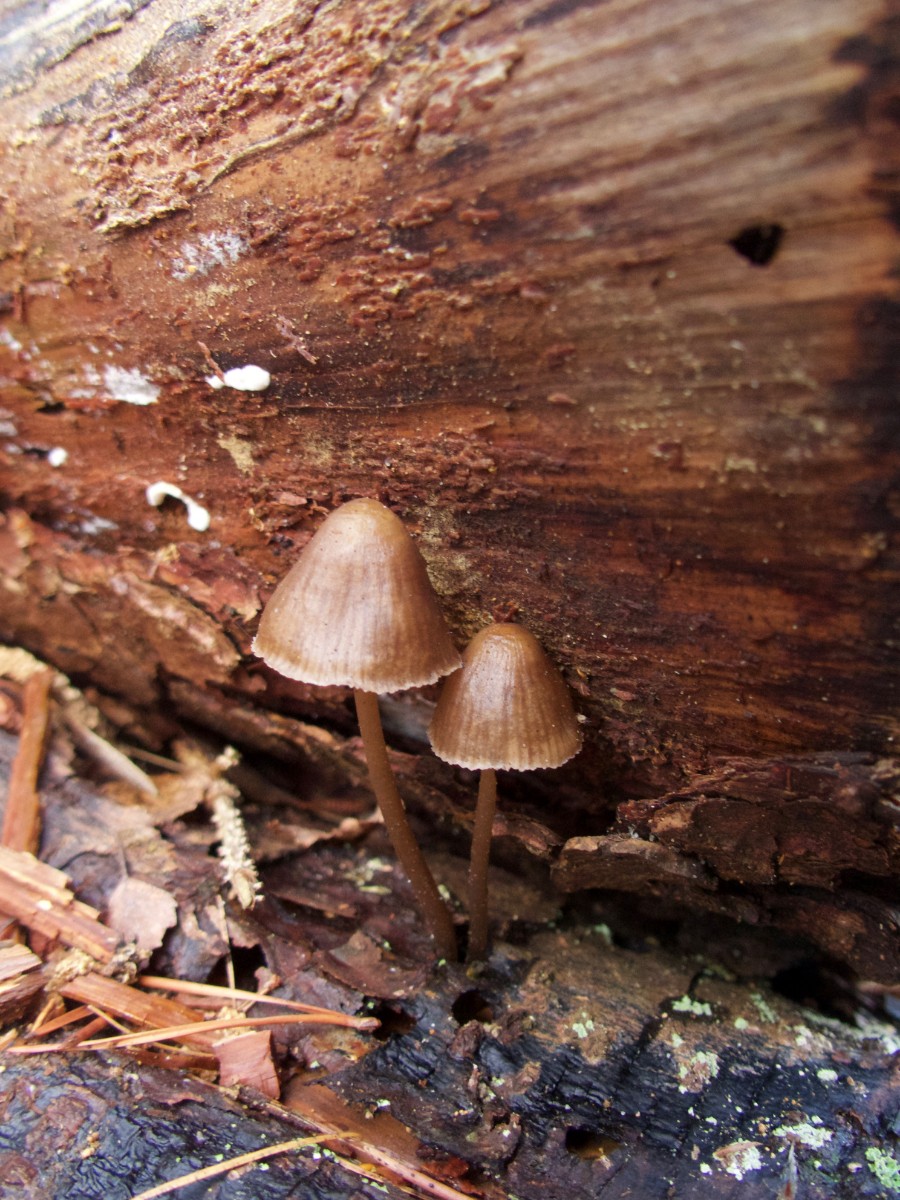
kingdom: Fungi
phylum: Basidiomycota
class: Agaricomycetes
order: Agaricales
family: Mycenaceae
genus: Mycena
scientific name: Mycena stipata
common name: stinkende huesvamp
